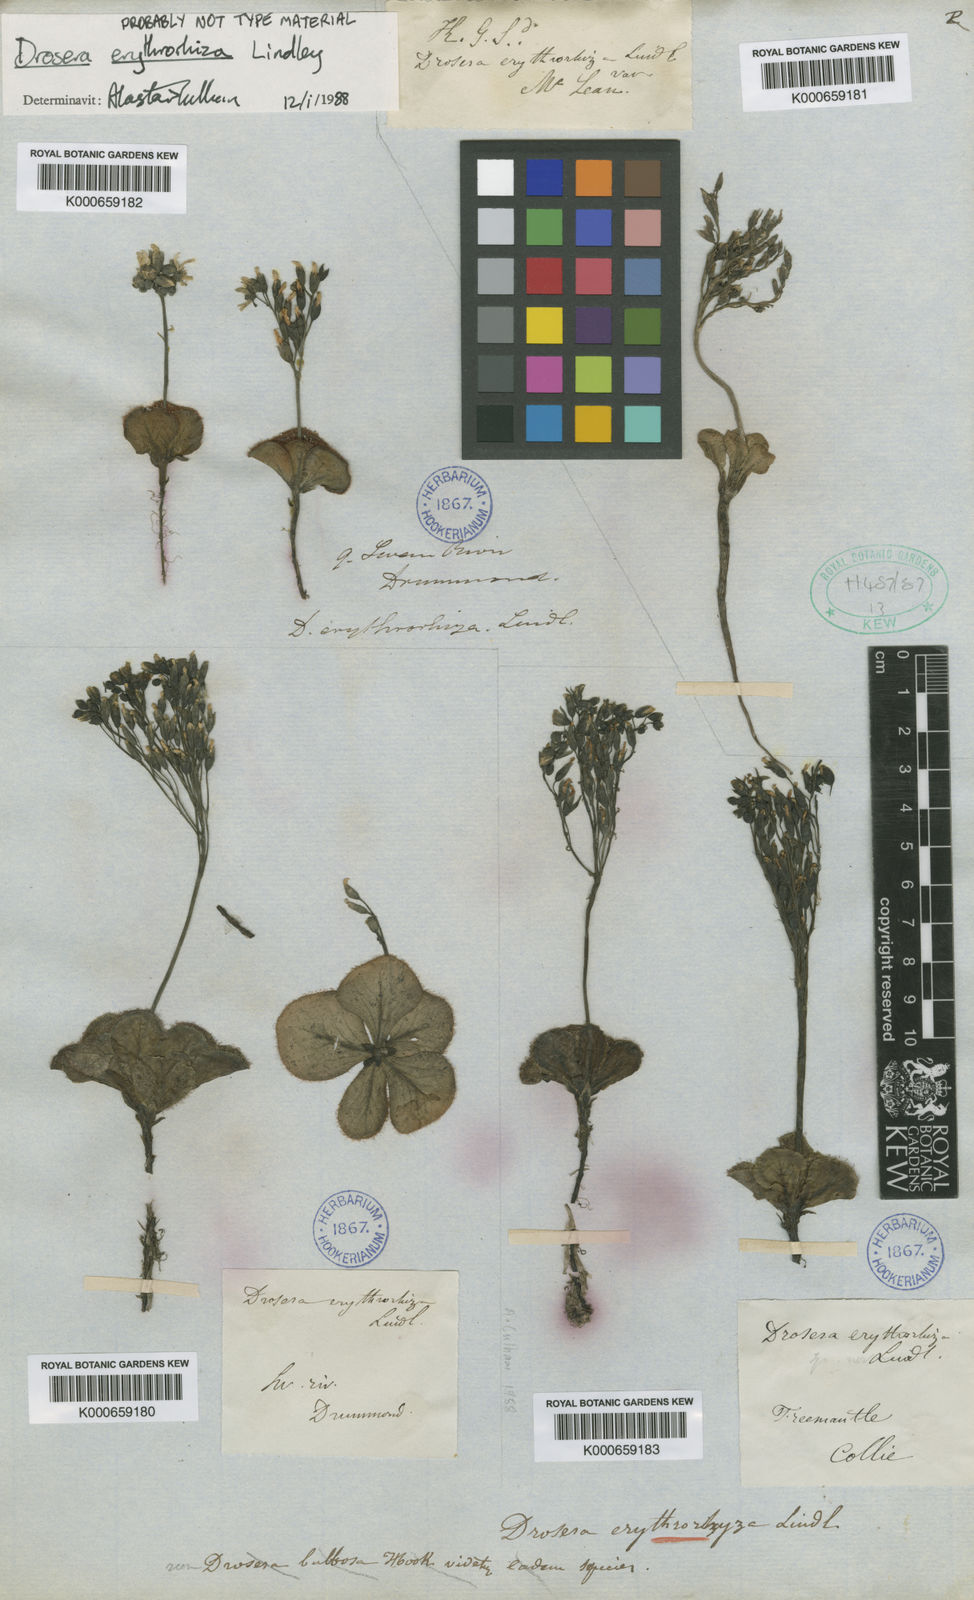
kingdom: Plantae
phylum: Tracheophyta
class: Magnoliopsida
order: Caryophyllales
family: Droseraceae
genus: Drosera
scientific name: Drosera erythrorhiza
